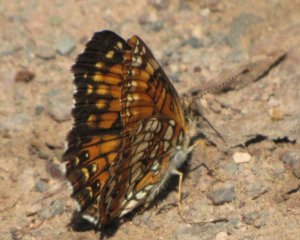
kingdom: Animalia
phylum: Arthropoda
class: Insecta
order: Lepidoptera
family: Nymphalidae
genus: Chlosyne
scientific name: Chlosyne harrisii
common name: Harris's Checkerspot
